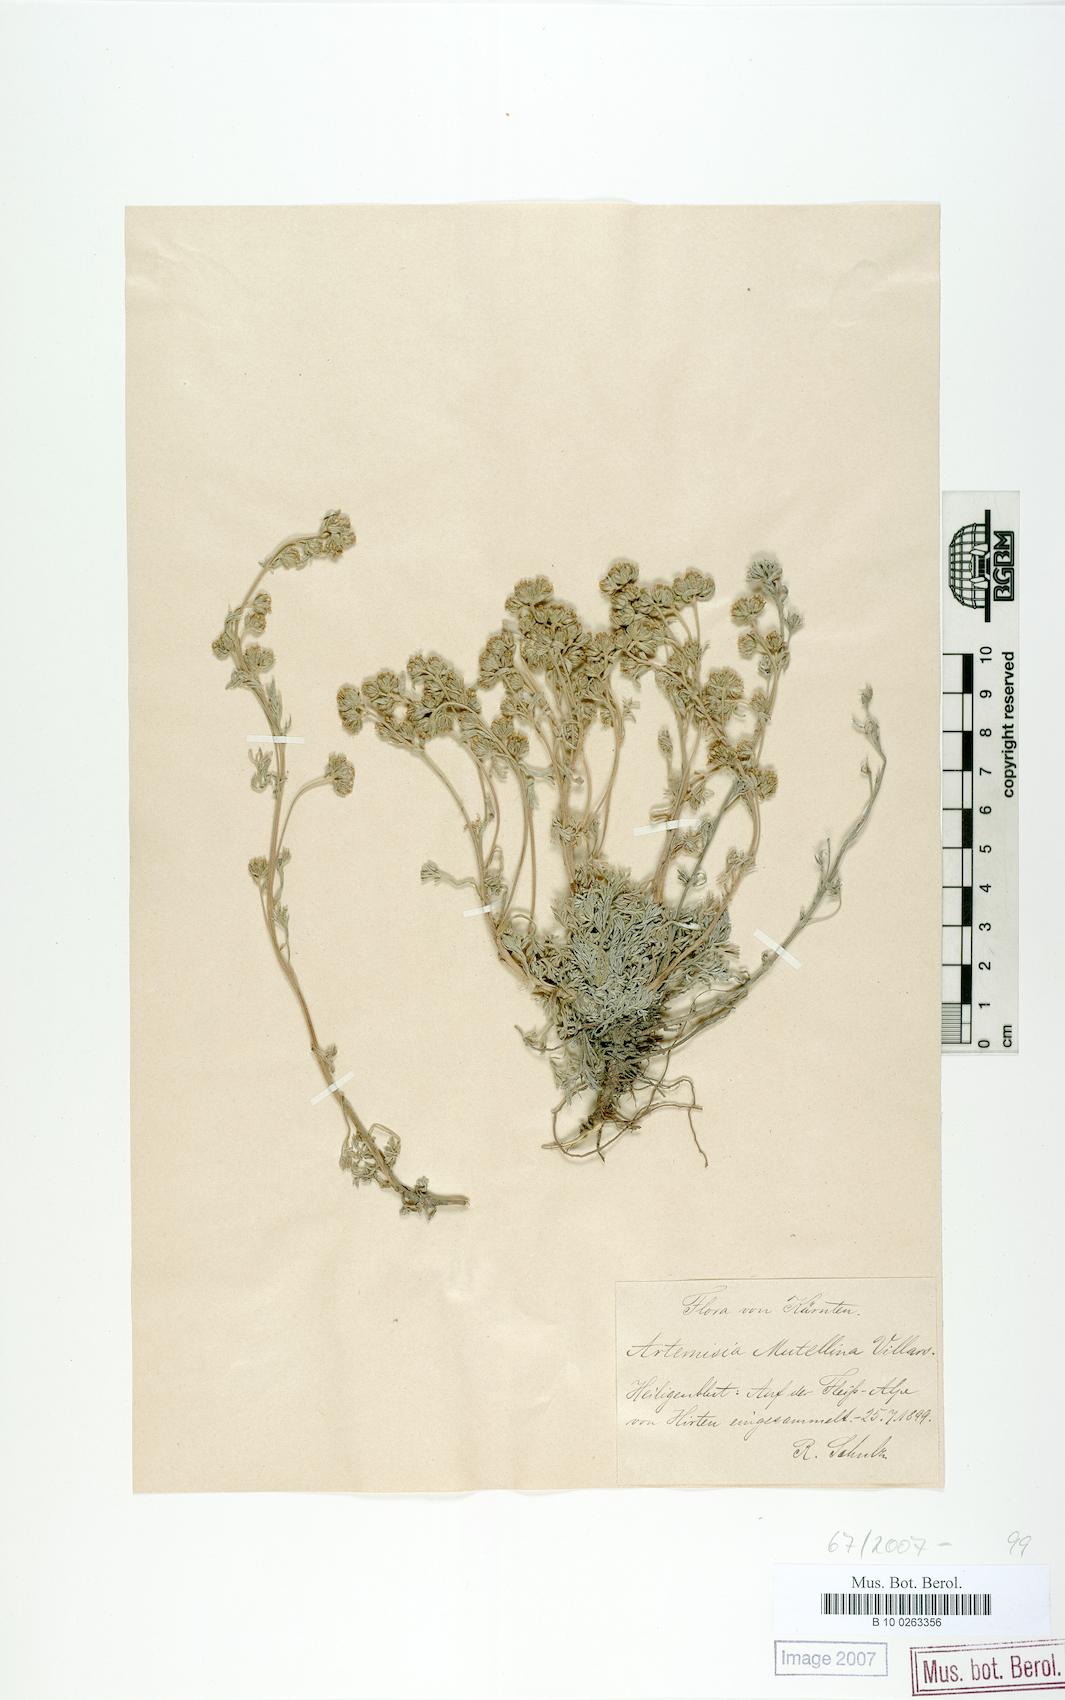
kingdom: Plantae
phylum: Tracheophyta
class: Magnoliopsida
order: Asterales
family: Asteraceae
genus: Artemisia
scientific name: Artemisia mutellina
